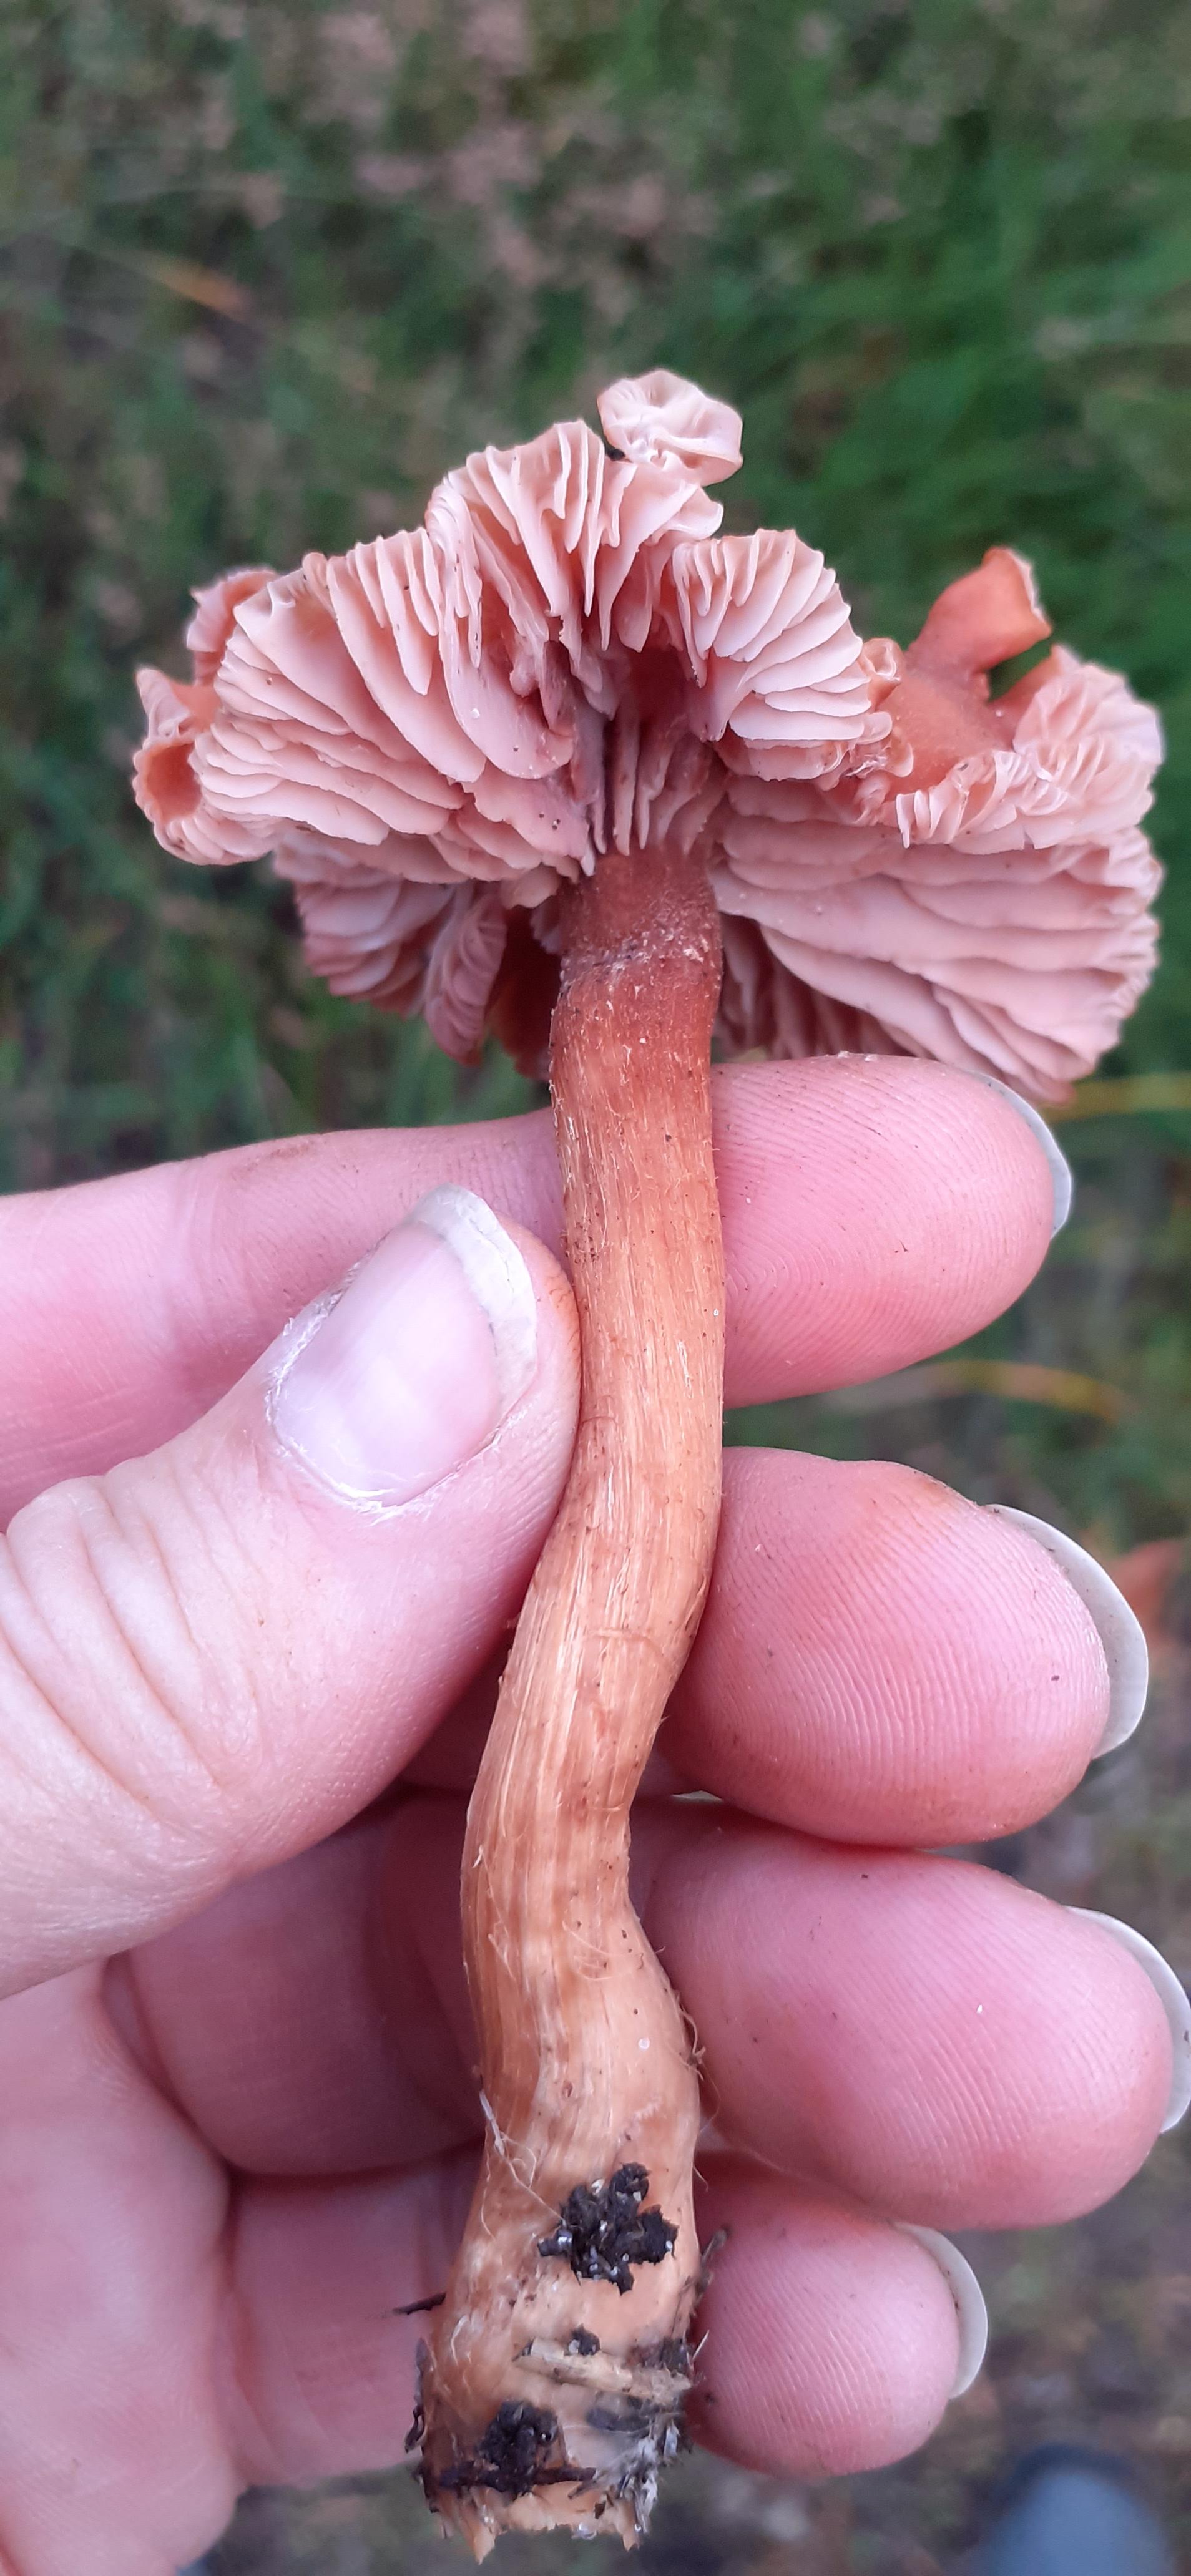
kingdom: Fungi
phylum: Basidiomycota
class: Agaricomycetes
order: Agaricales
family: Hydnangiaceae
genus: Laccaria
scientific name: Laccaria laccata
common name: rød ametysthat
